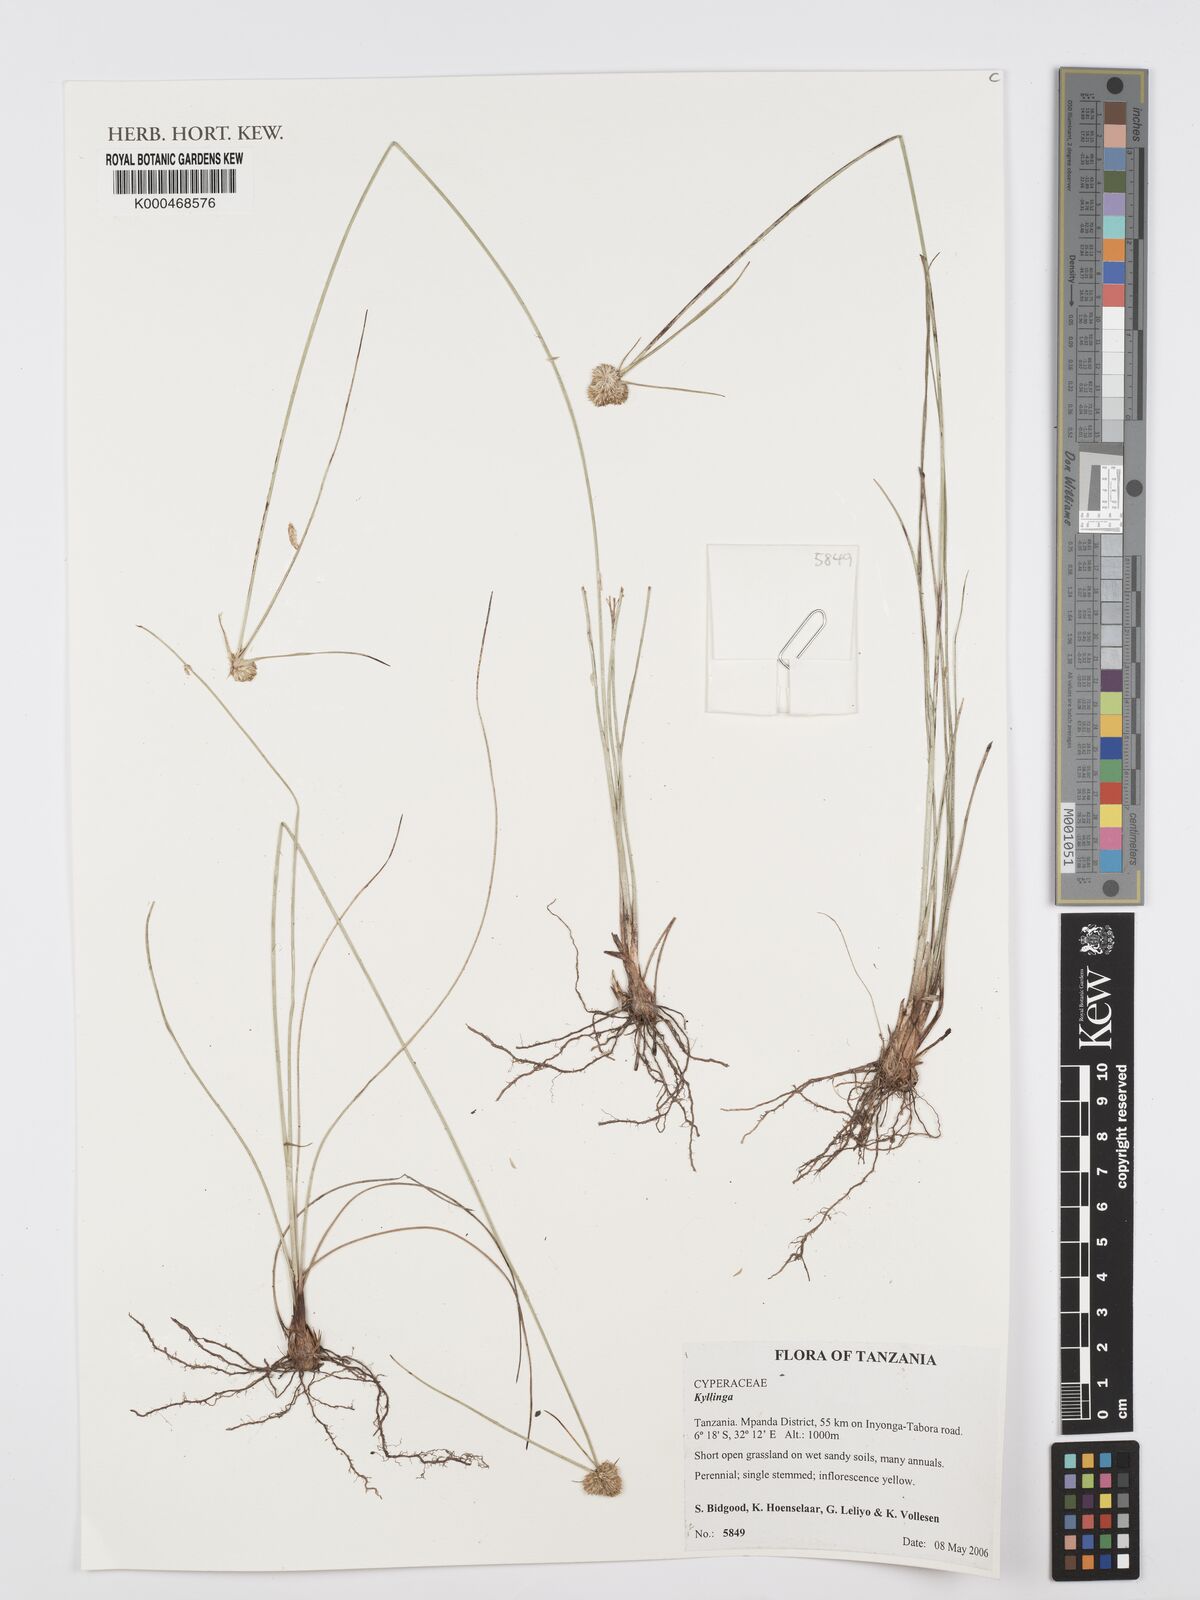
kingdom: Plantae
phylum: Tracheophyta
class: Liliopsida
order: Poales
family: Cyperaceae
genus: Cyperus
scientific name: Cyperus
